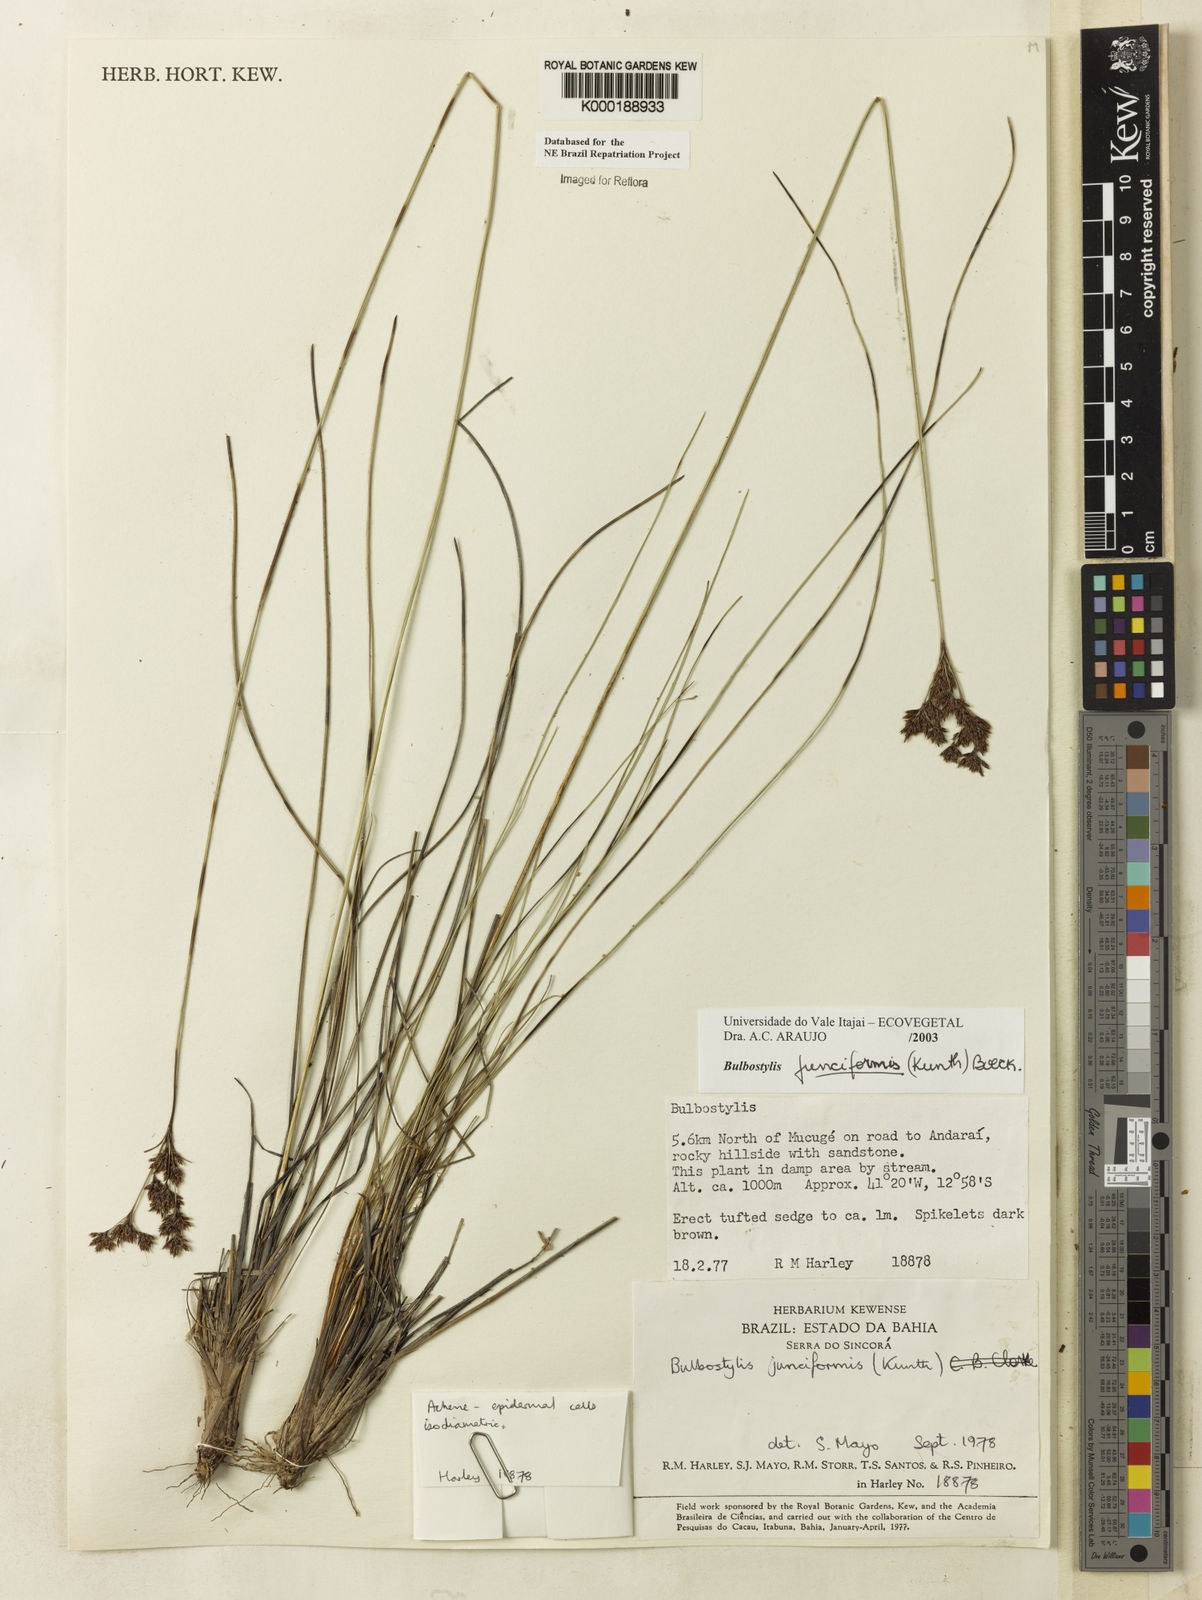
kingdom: Plantae
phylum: Tracheophyta
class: Liliopsida
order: Poales
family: Cyperaceae
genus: Bulbostylis
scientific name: Bulbostylis
